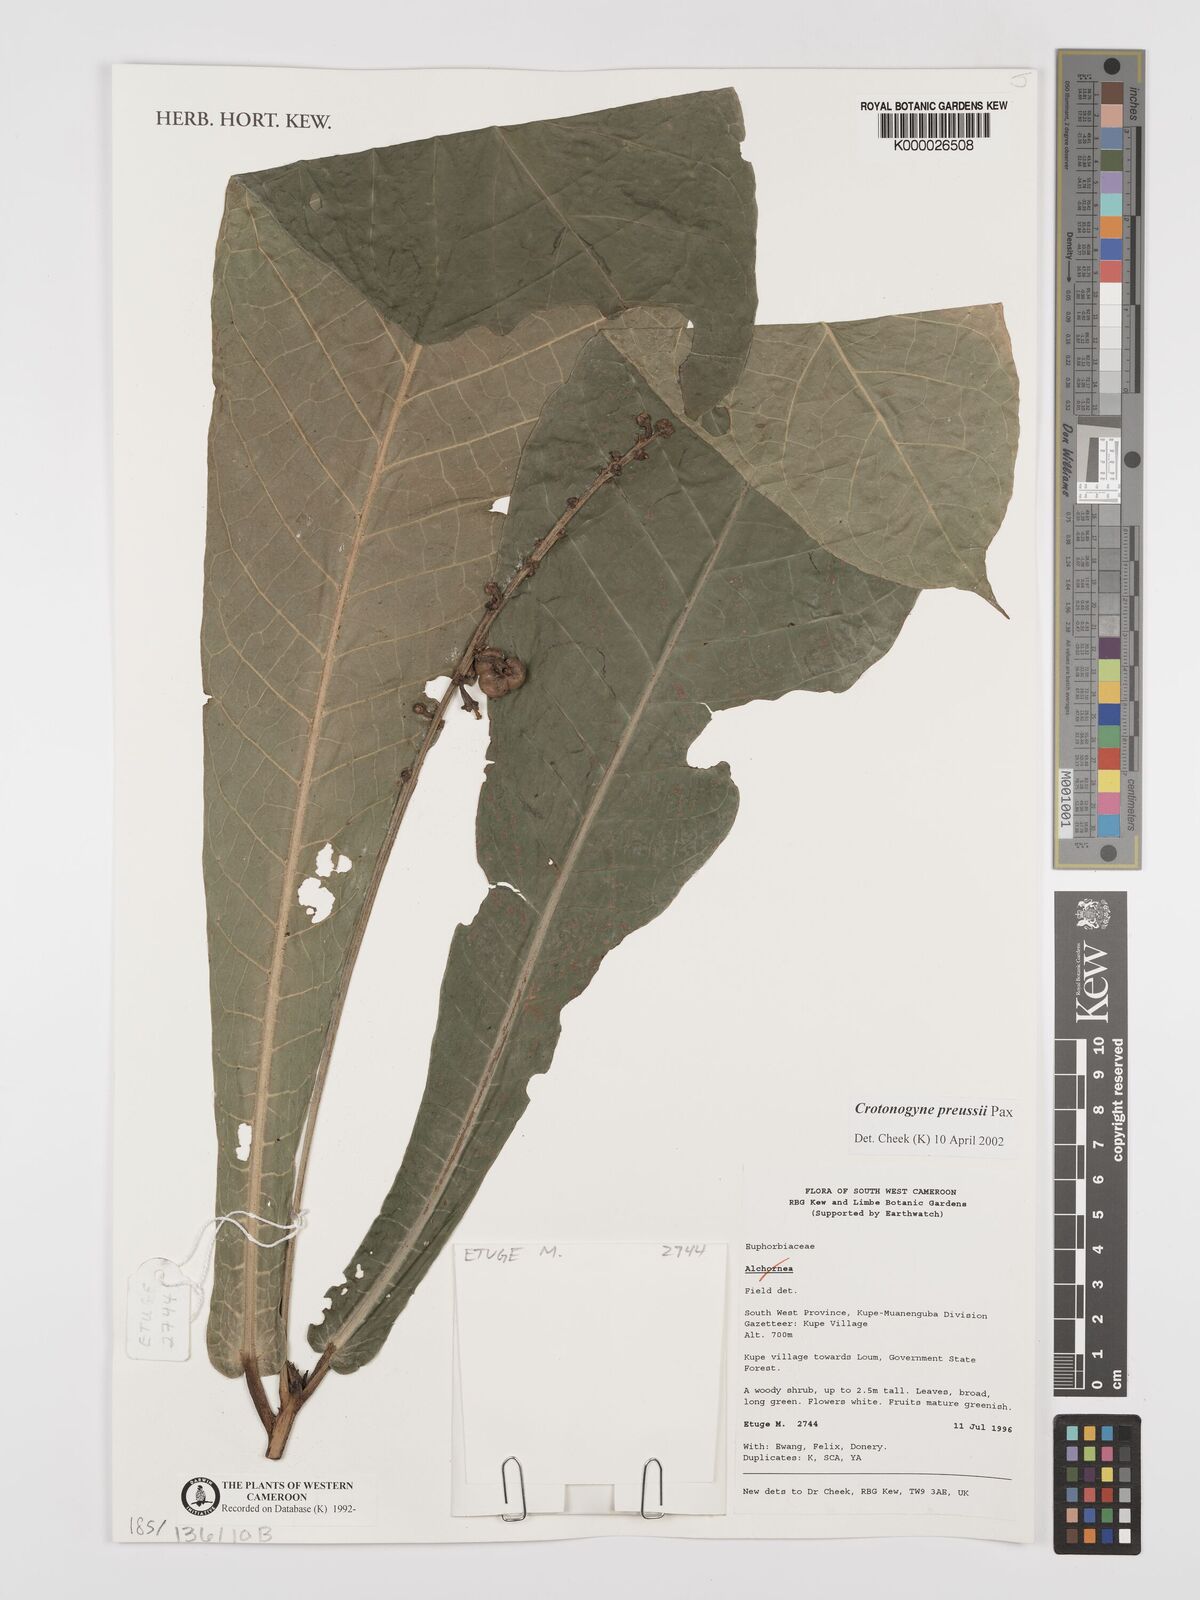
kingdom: Plantae
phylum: Tracheophyta
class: Magnoliopsida
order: Malpighiales
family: Euphorbiaceae
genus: Crotonogyne
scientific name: Crotonogyne preussii
